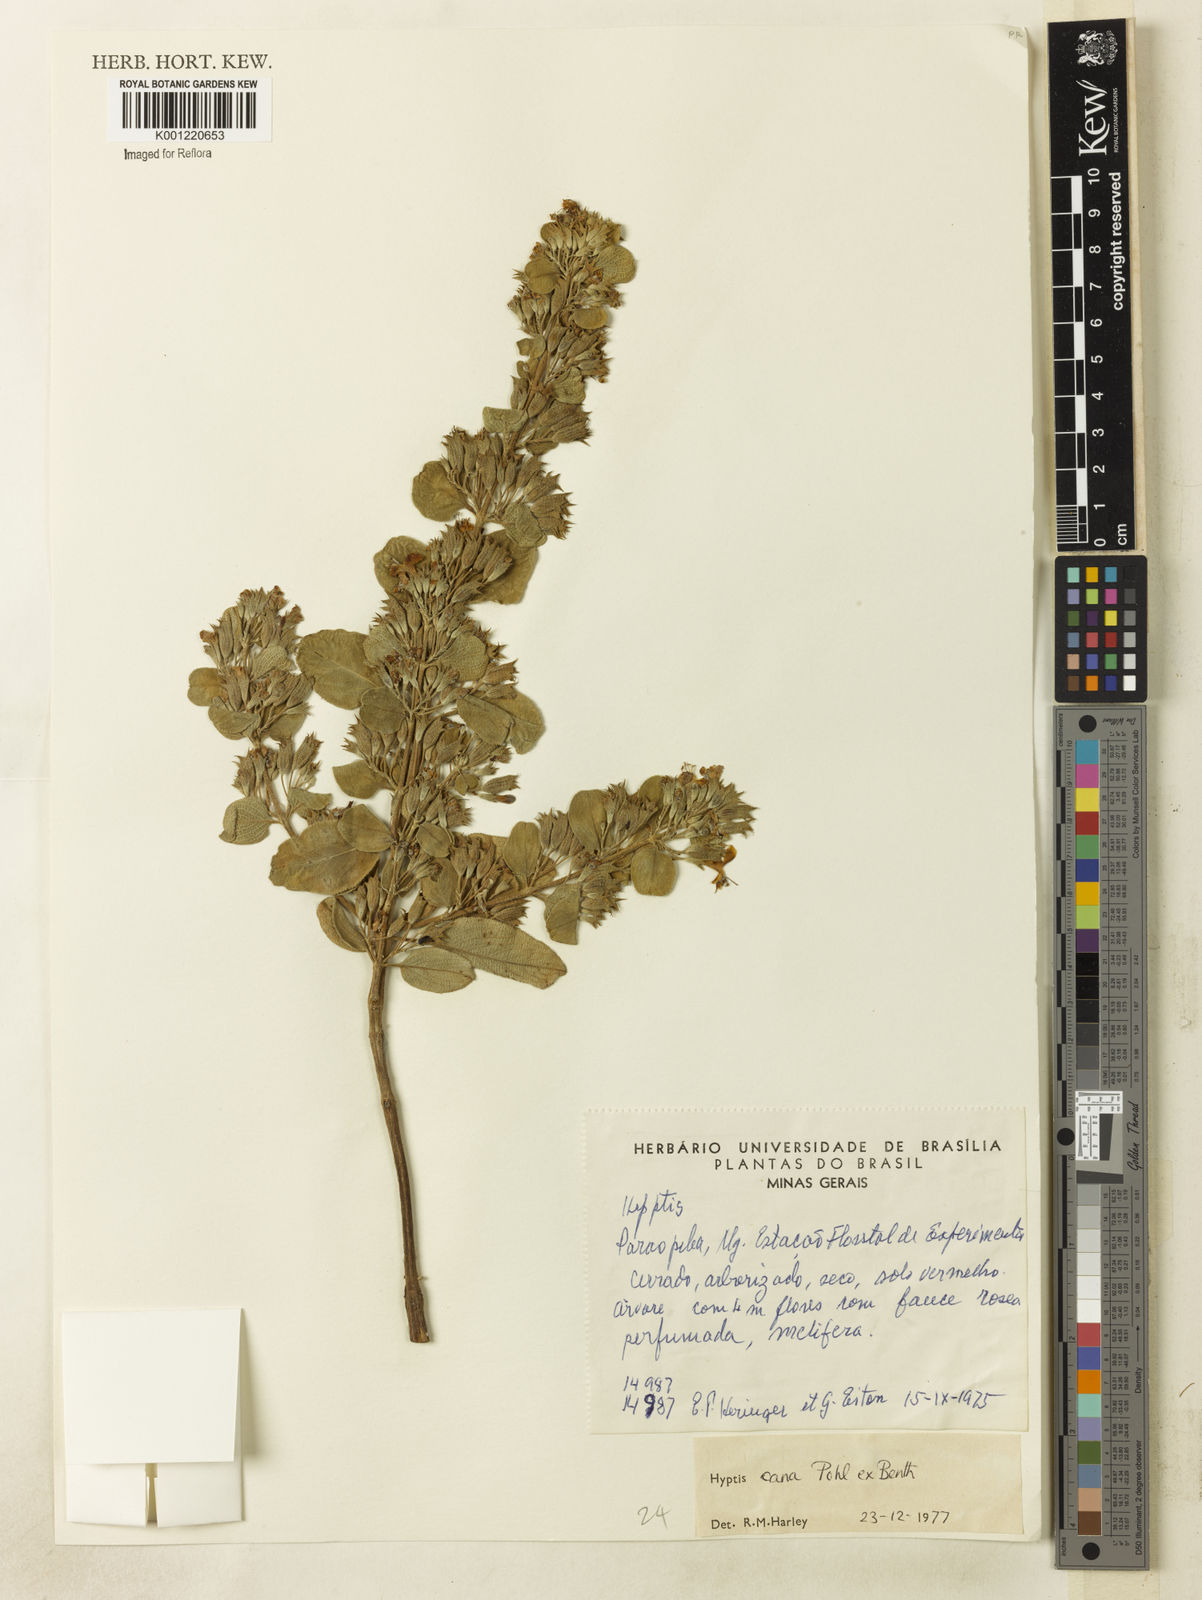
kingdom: Plantae
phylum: Tracheophyta
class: Magnoliopsida
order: Lamiales
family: Lamiaceae
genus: Hyptidendron
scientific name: Hyptidendron canum
